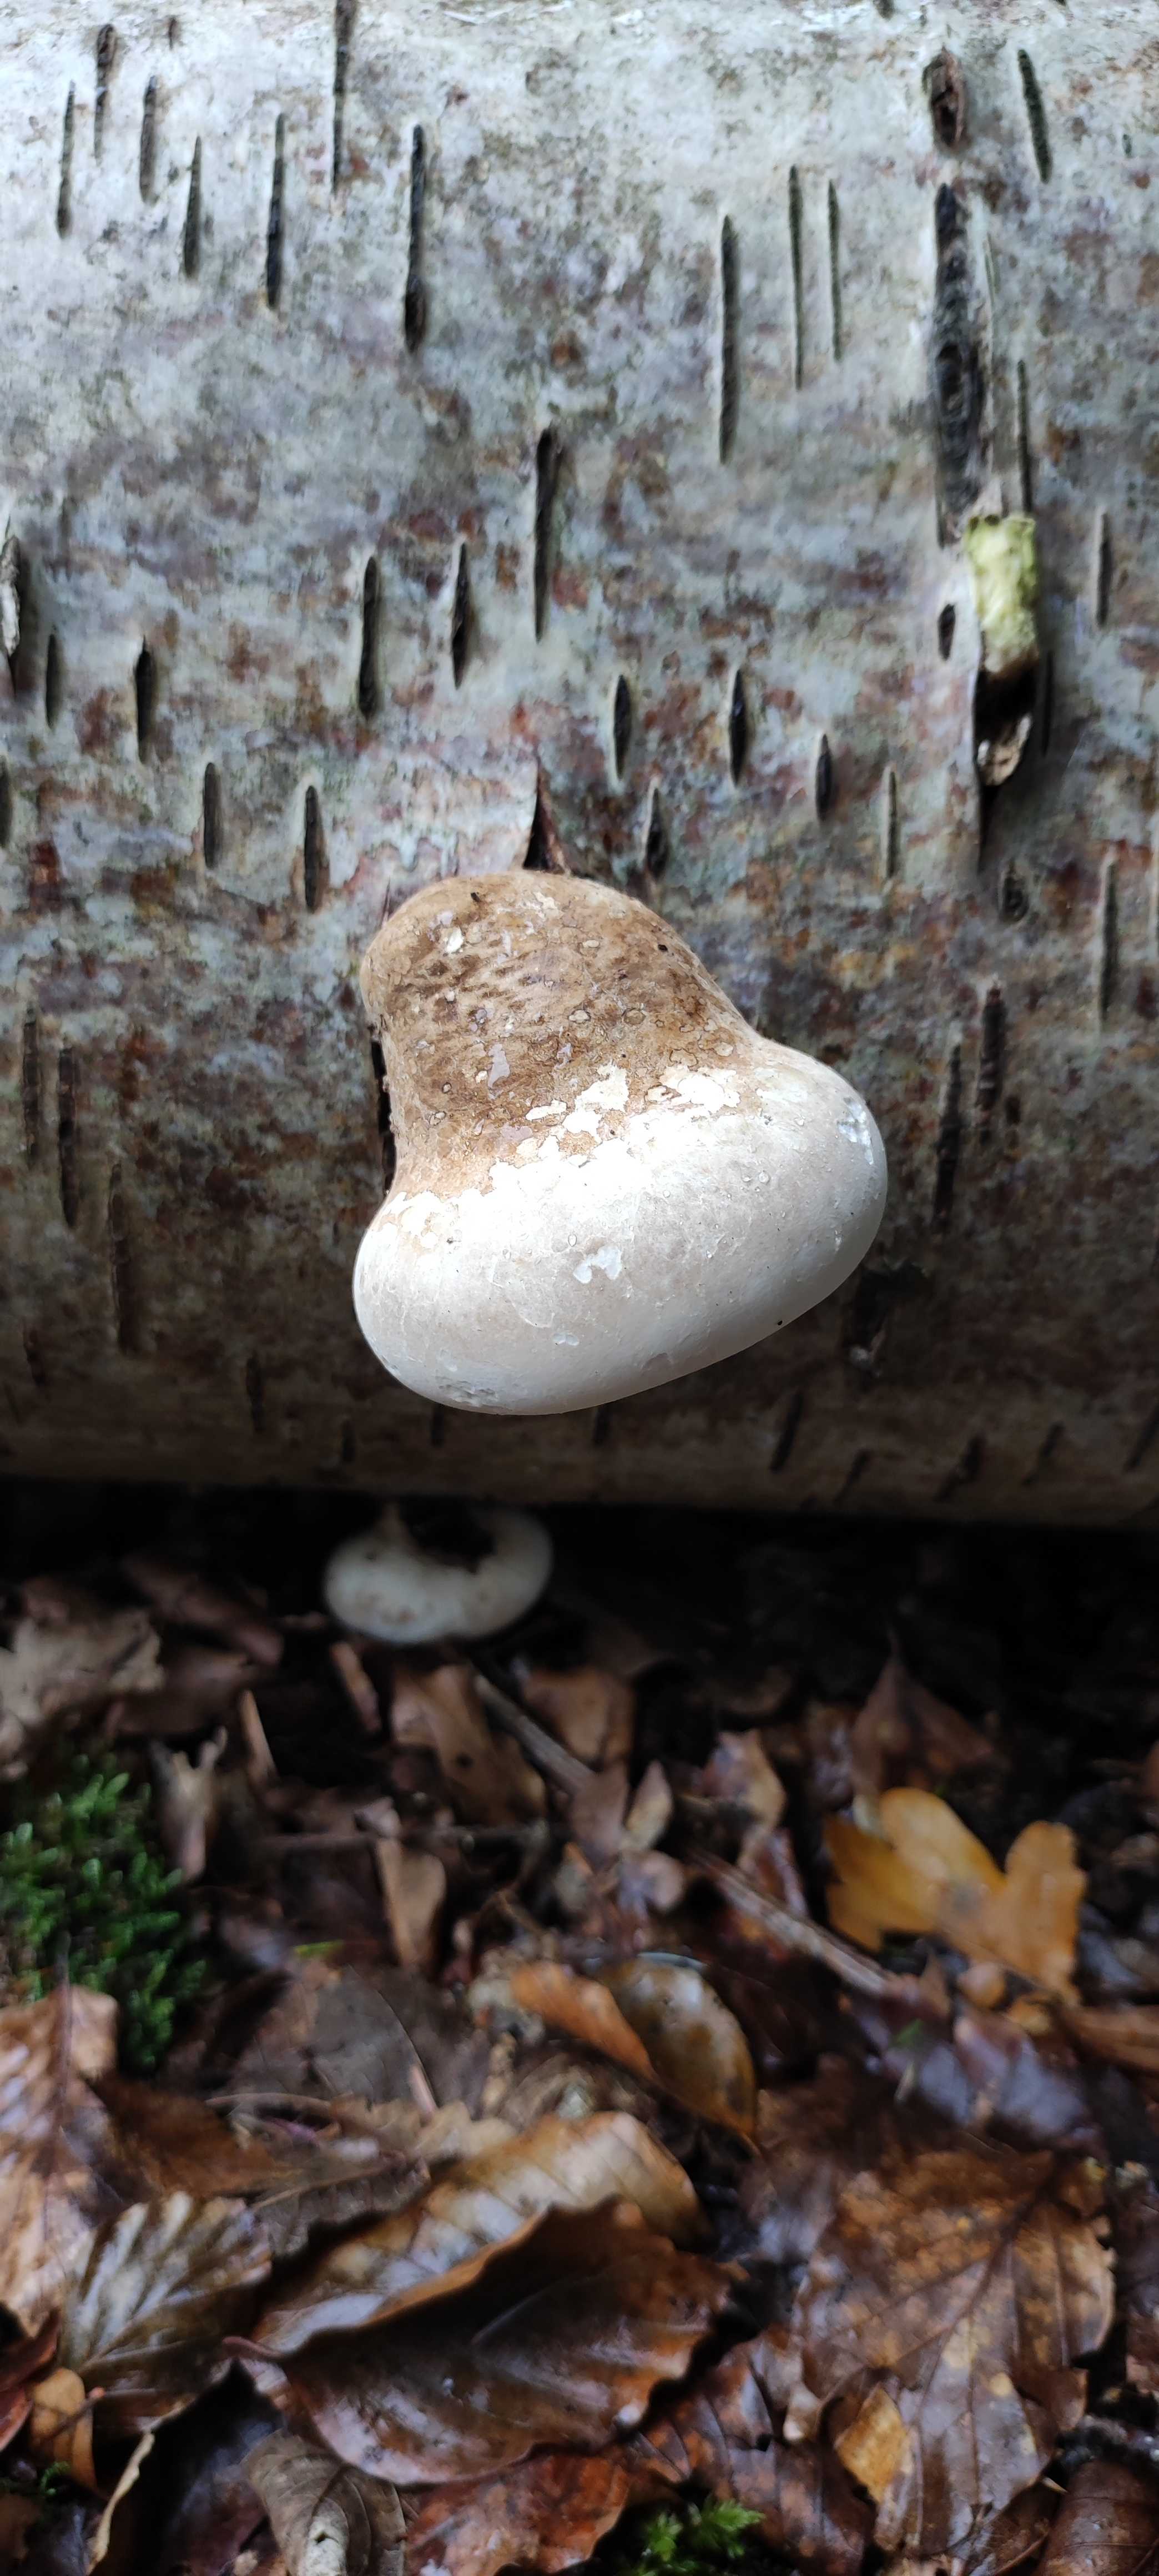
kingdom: Fungi
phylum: Basidiomycota
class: Agaricomycetes
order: Polyporales
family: Fomitopsidaceae
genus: Fomitopsis
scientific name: Fomitopsis betulina
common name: birkeporesvamp
